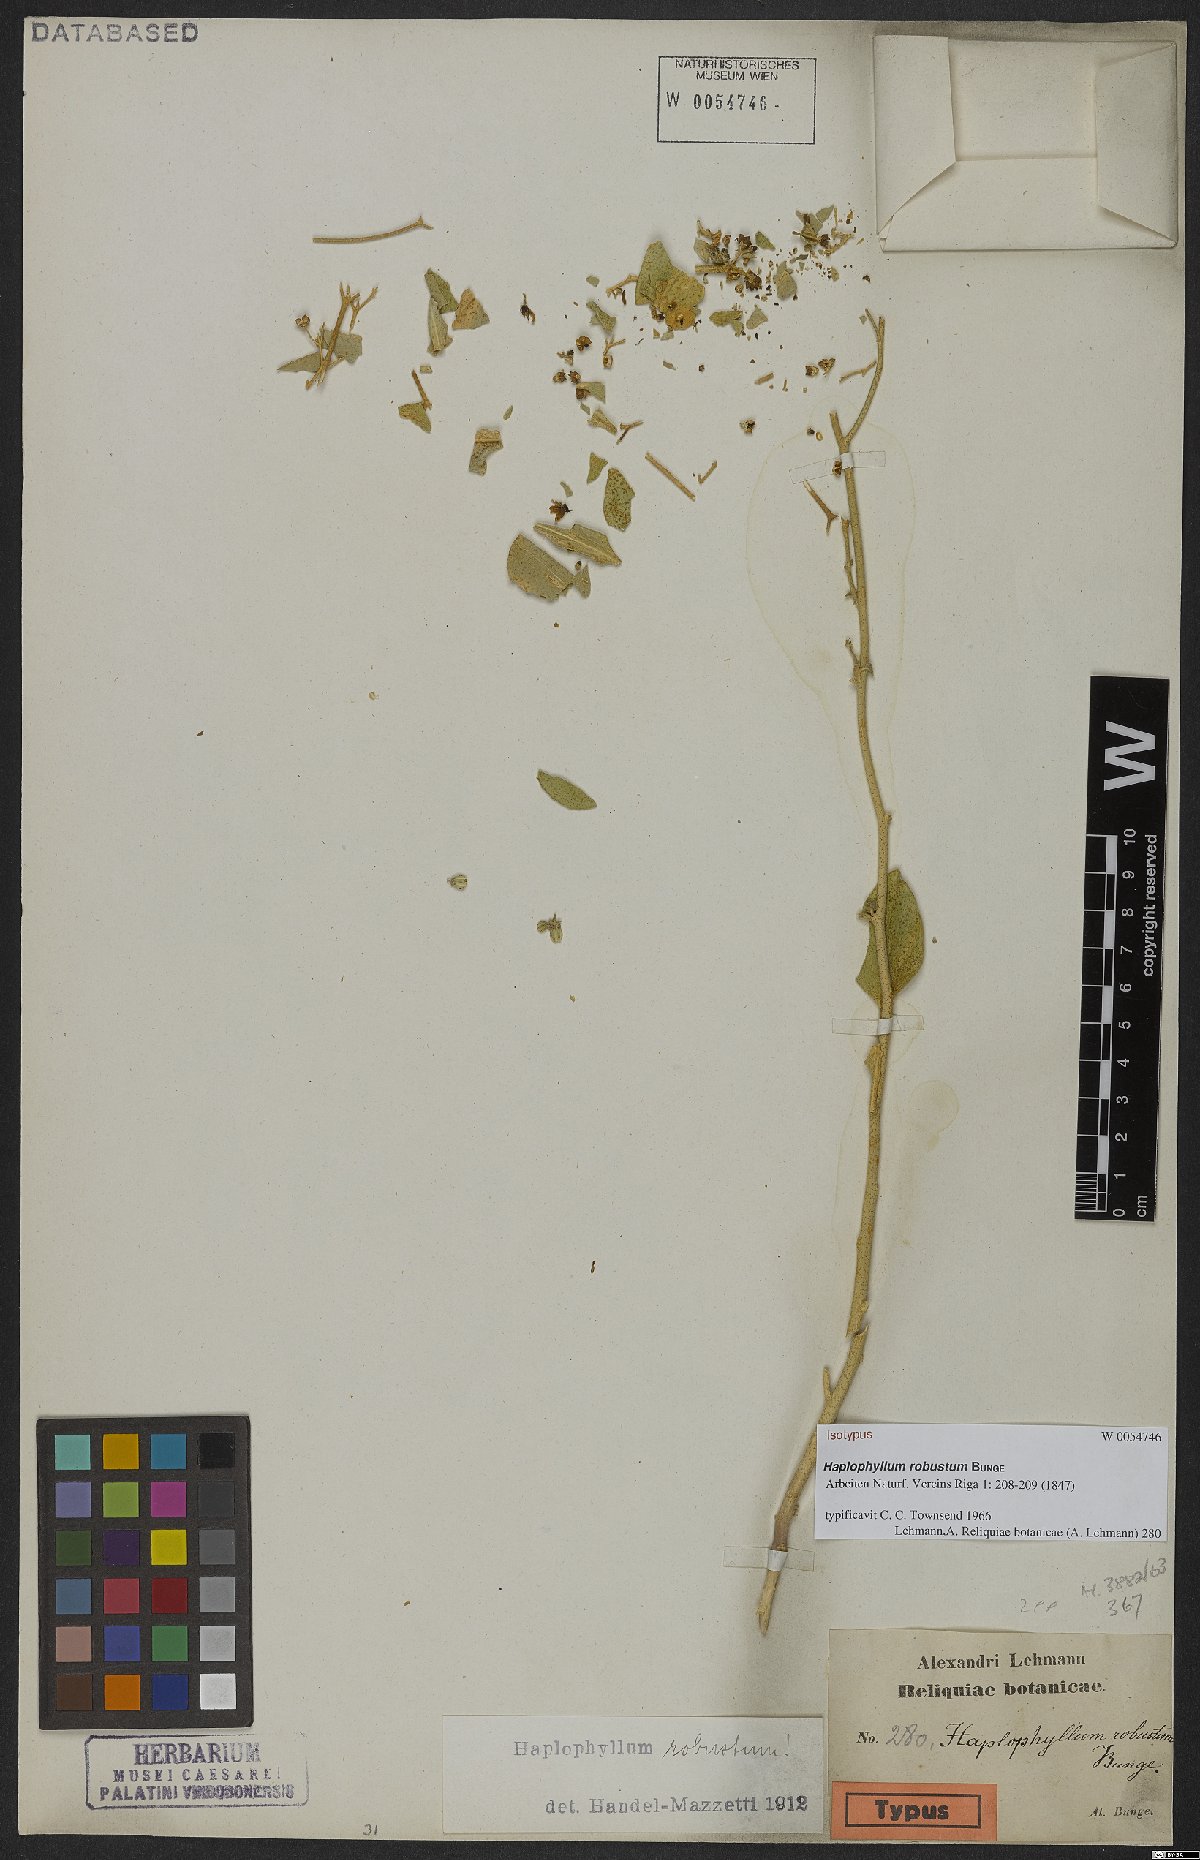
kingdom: Plantae
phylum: Tracheophyta
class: Magnoliopsida
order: Sapindales
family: Rutaceae
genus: Haplophyllum
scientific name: Haplophyllum robustum
